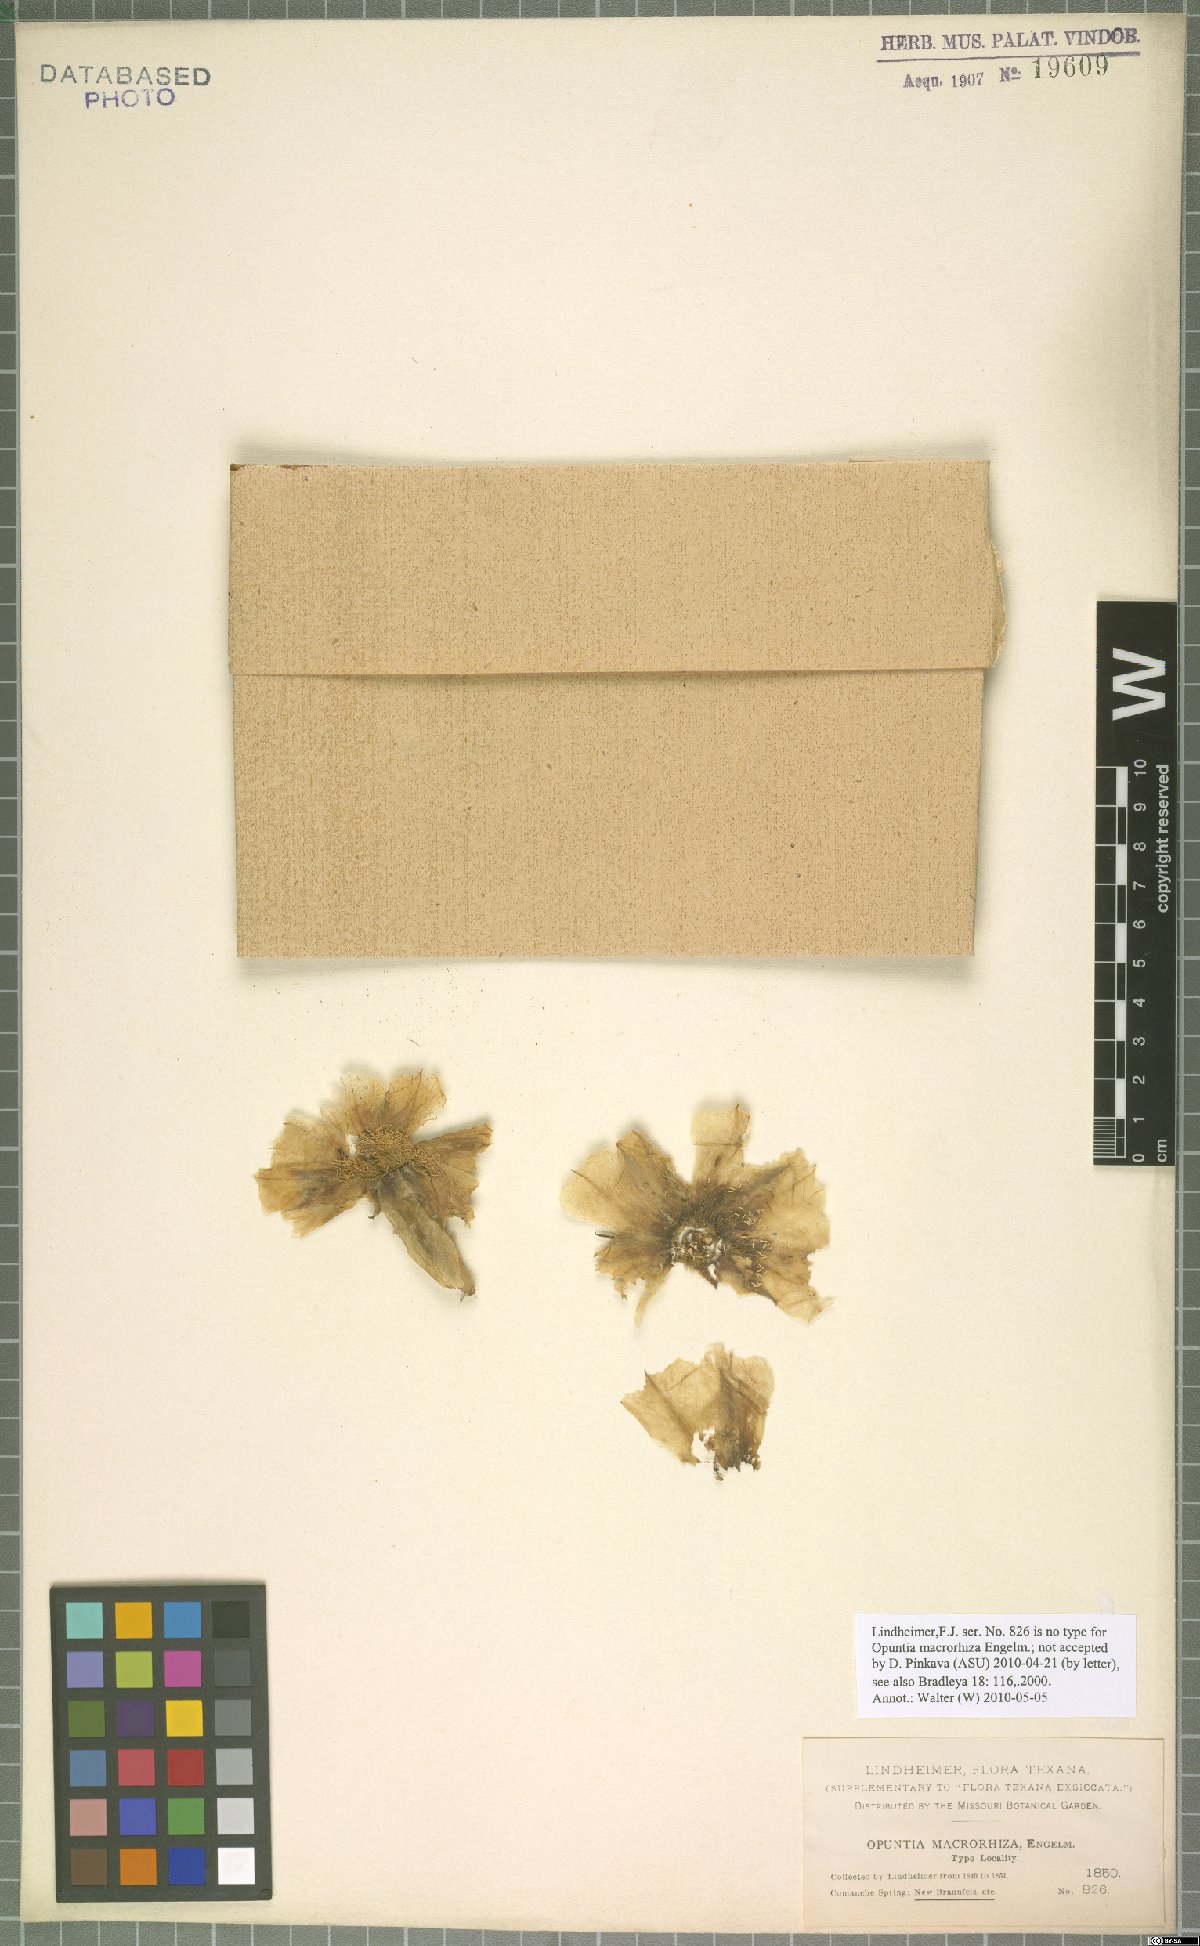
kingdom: Plantae
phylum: Tracheophyta
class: Magnoliopsida
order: Caryophyllales
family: Cactaceae
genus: Opuntia
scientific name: Opuntia macrorhiza
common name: Grassland pricklypear
